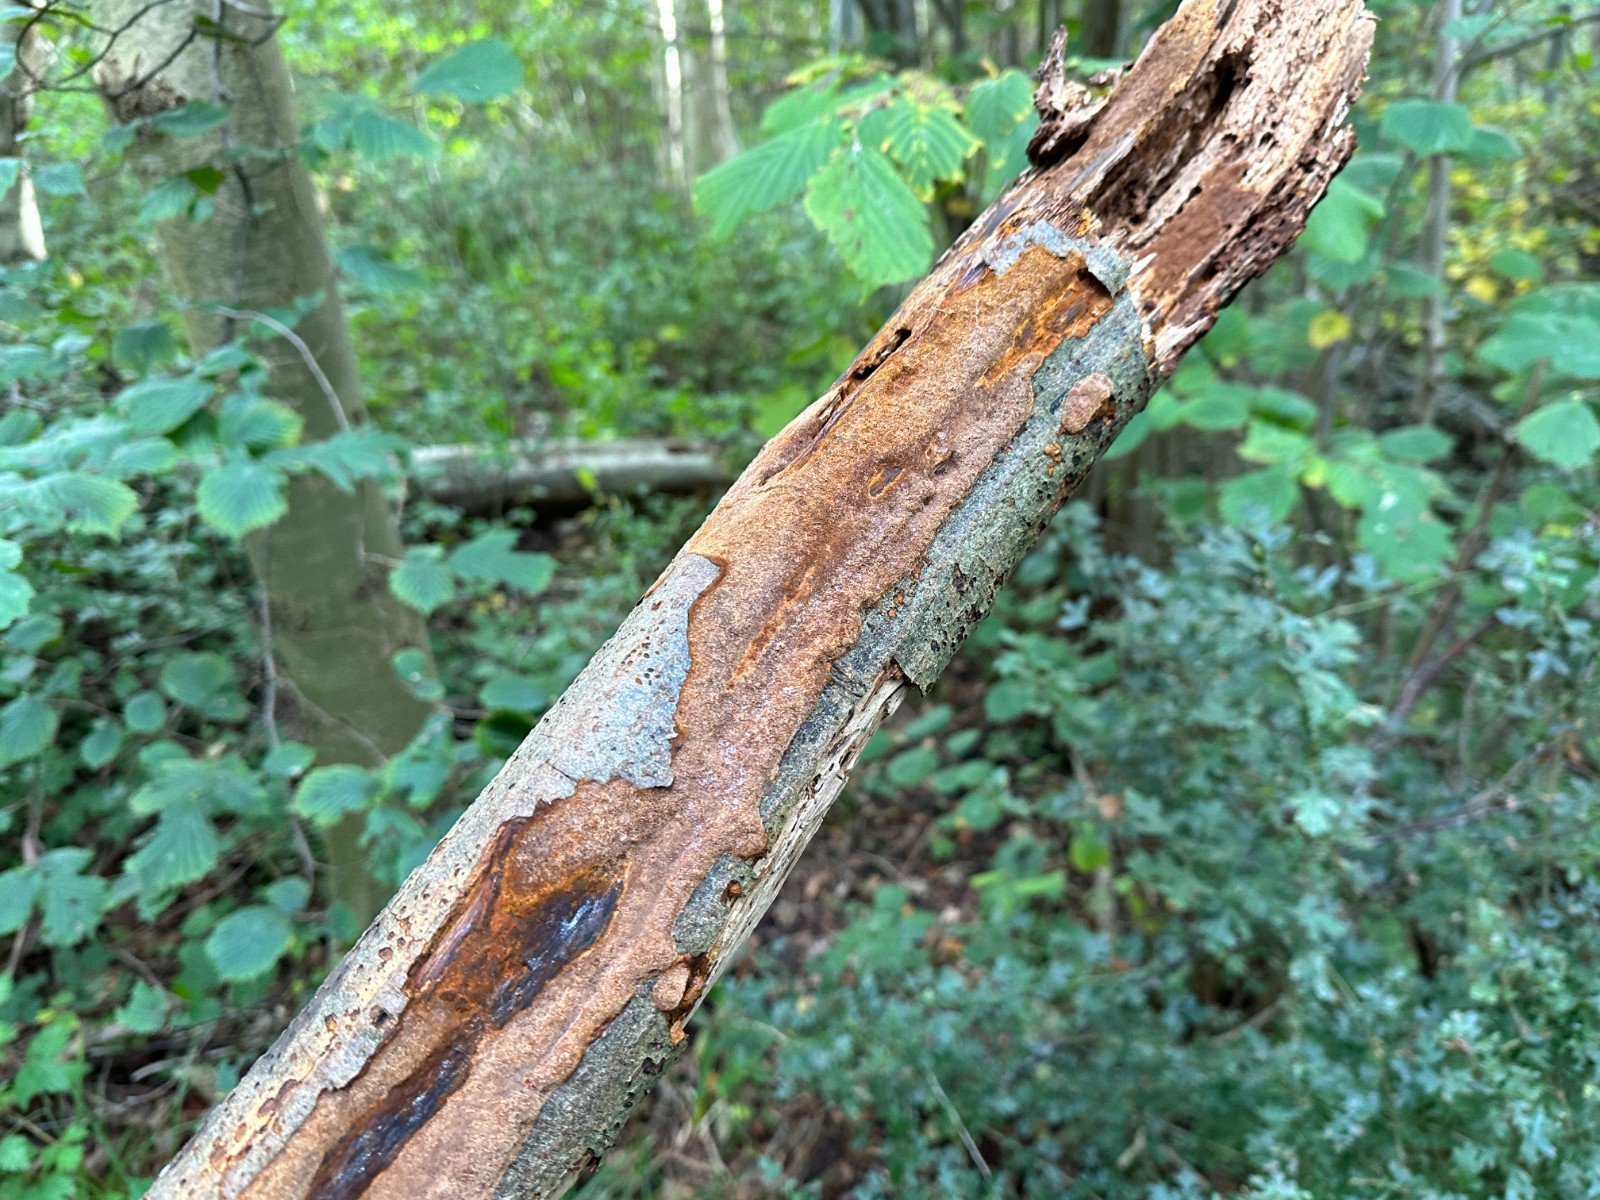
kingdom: Fungi
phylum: Basidiomycota
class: Agaricomycetes
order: Hymenochaetales
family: Hymenochaetaceae
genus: Fuscoporia
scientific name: Fuscoporia ferrea
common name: skorpe-ildporesvamp
